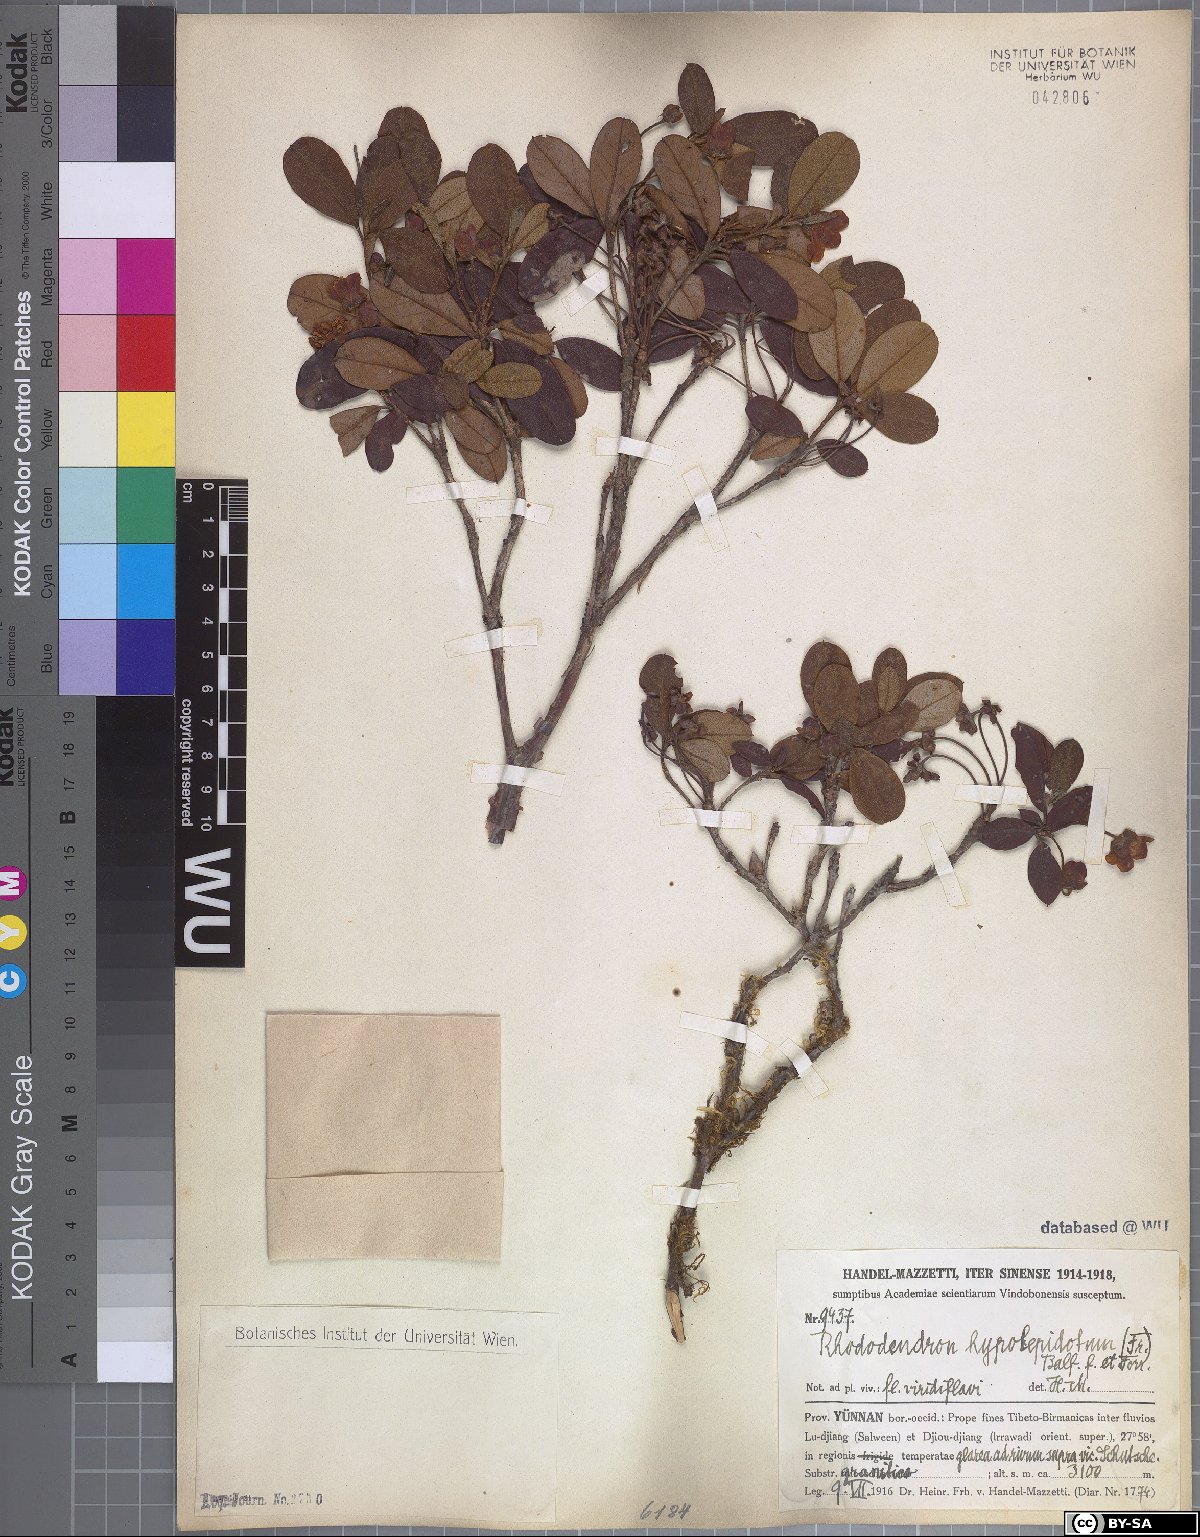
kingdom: Plantae
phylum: Tracheophyta
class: Magnoliopsida
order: Ericales
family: Ericaceae
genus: Rhododendron
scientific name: Rhododendron brachyanthum
